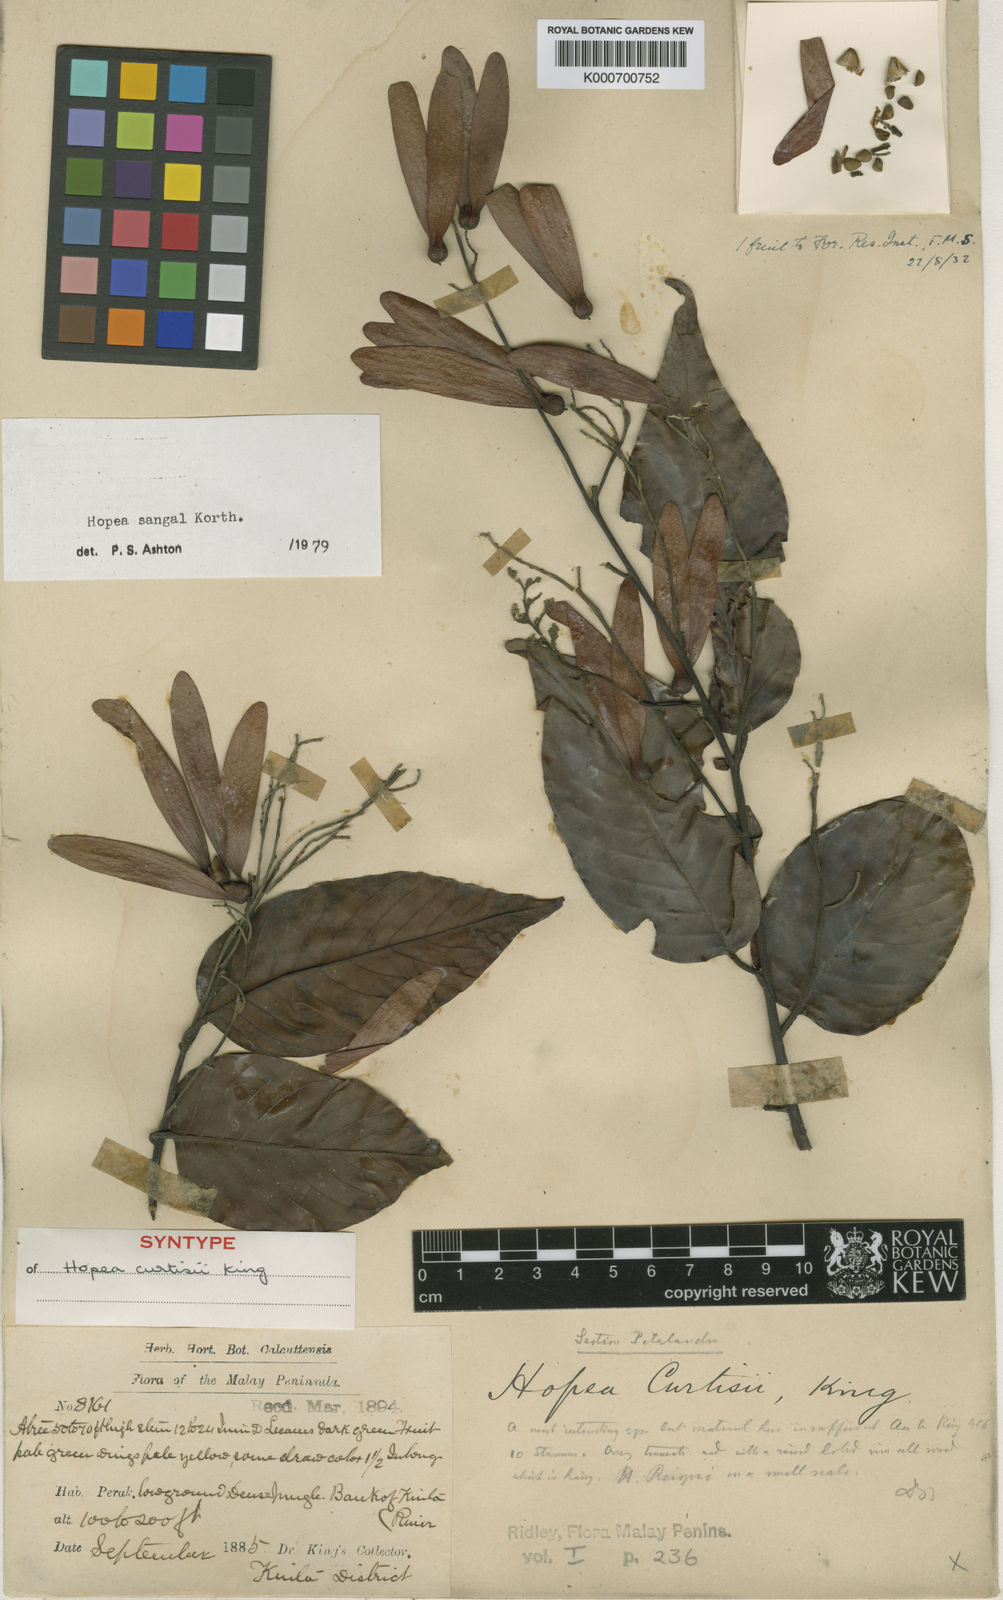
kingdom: Plantae
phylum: Tracheophyta
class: Magnoliopsida
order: Malvales
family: Dipterocarpaceae
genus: Hopea
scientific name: Hopea sangal
